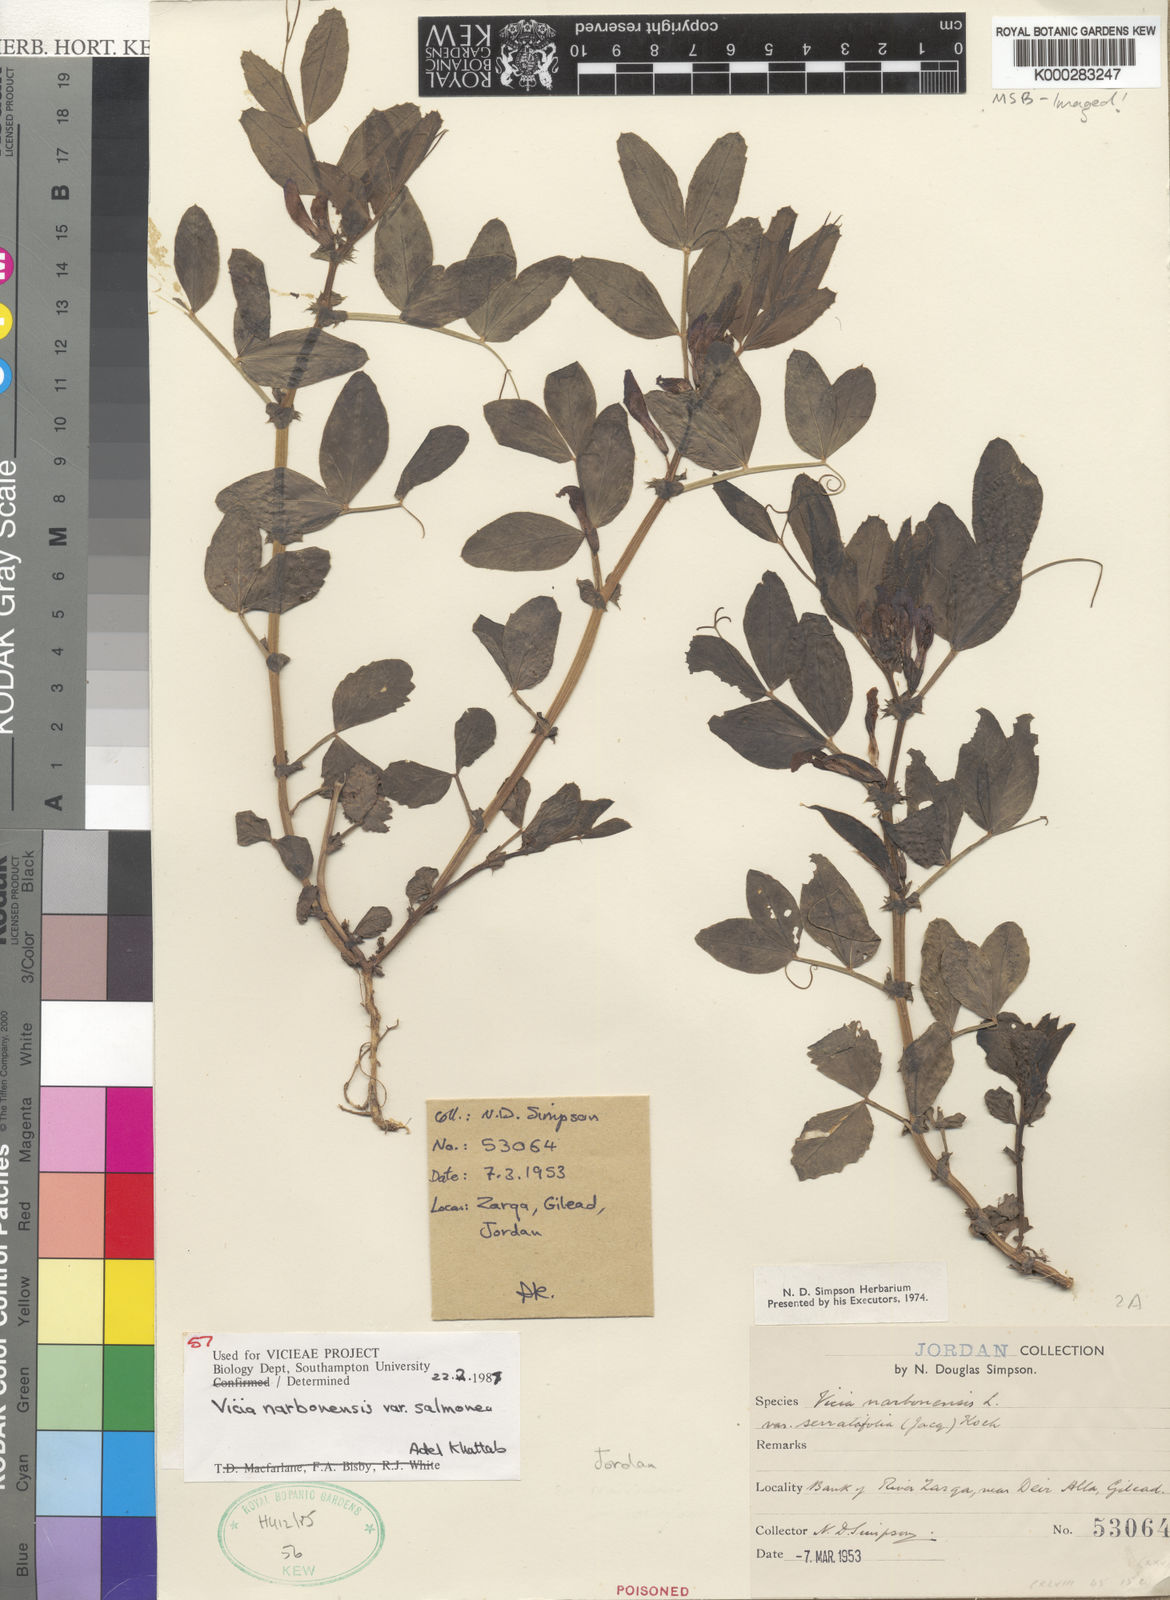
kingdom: Plantae
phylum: Tracheophyta
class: Magnoliopsida
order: Fabales
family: Fabaceae
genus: Vicia
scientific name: Vicia narbonensis
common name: Narbonne vetch
